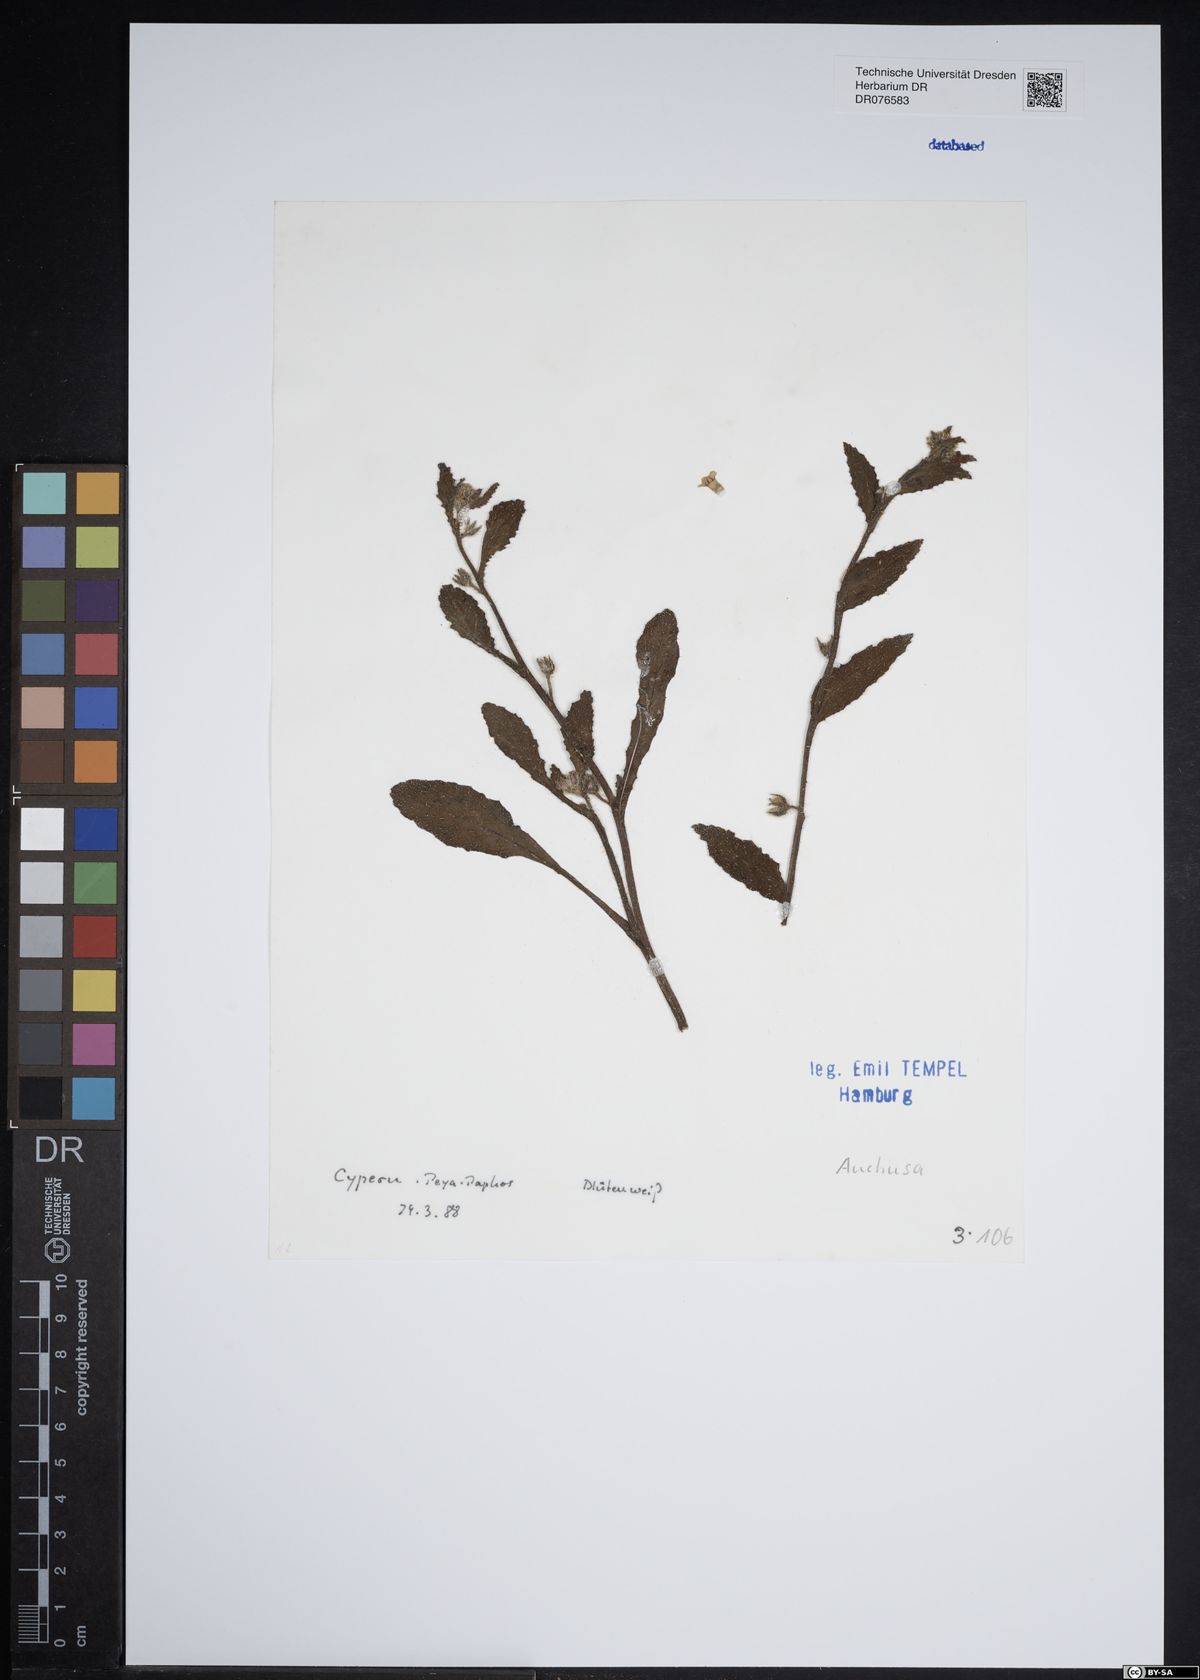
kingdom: Plantae
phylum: Tracheophyta
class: Magnoliopsida
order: Boraginales
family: Boraginaceae
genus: Anchusa
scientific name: Anchusa
